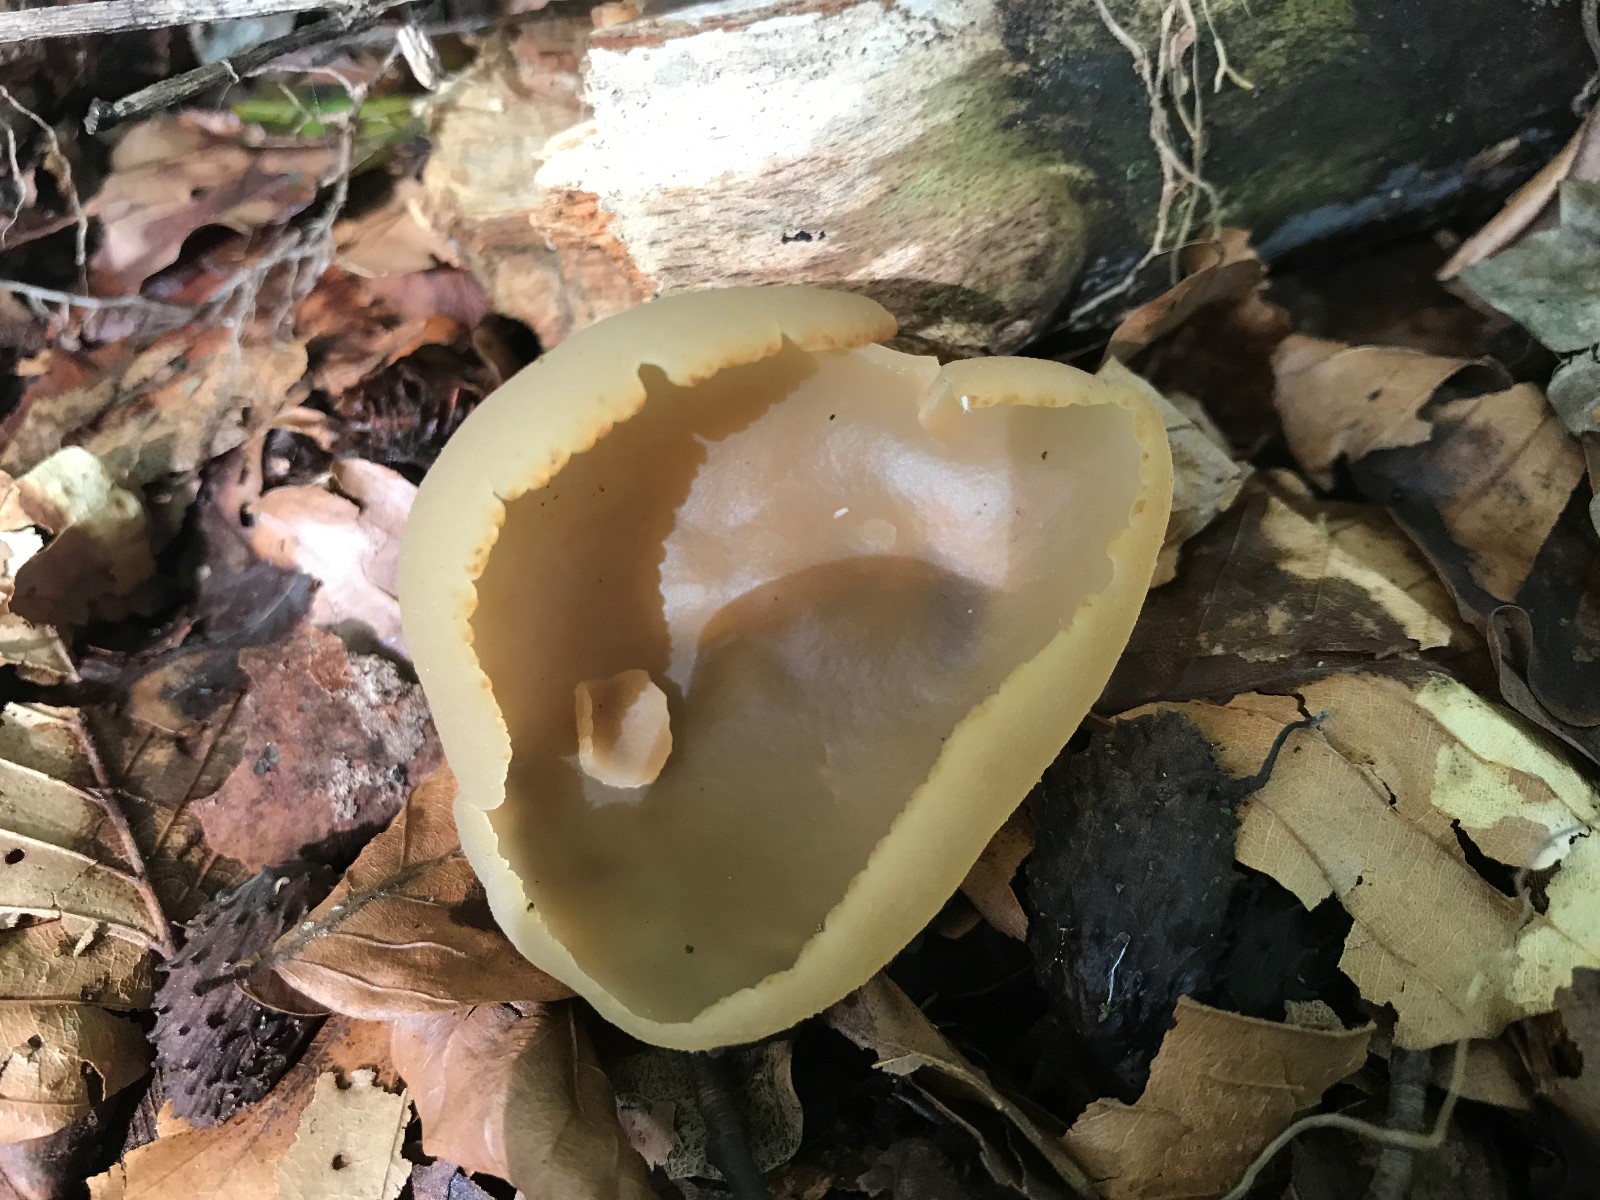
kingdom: Fungi
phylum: Ascomycota
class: Pezizomycetes
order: Pezizales
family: Pezizaceae
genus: Peziza
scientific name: Peziza
